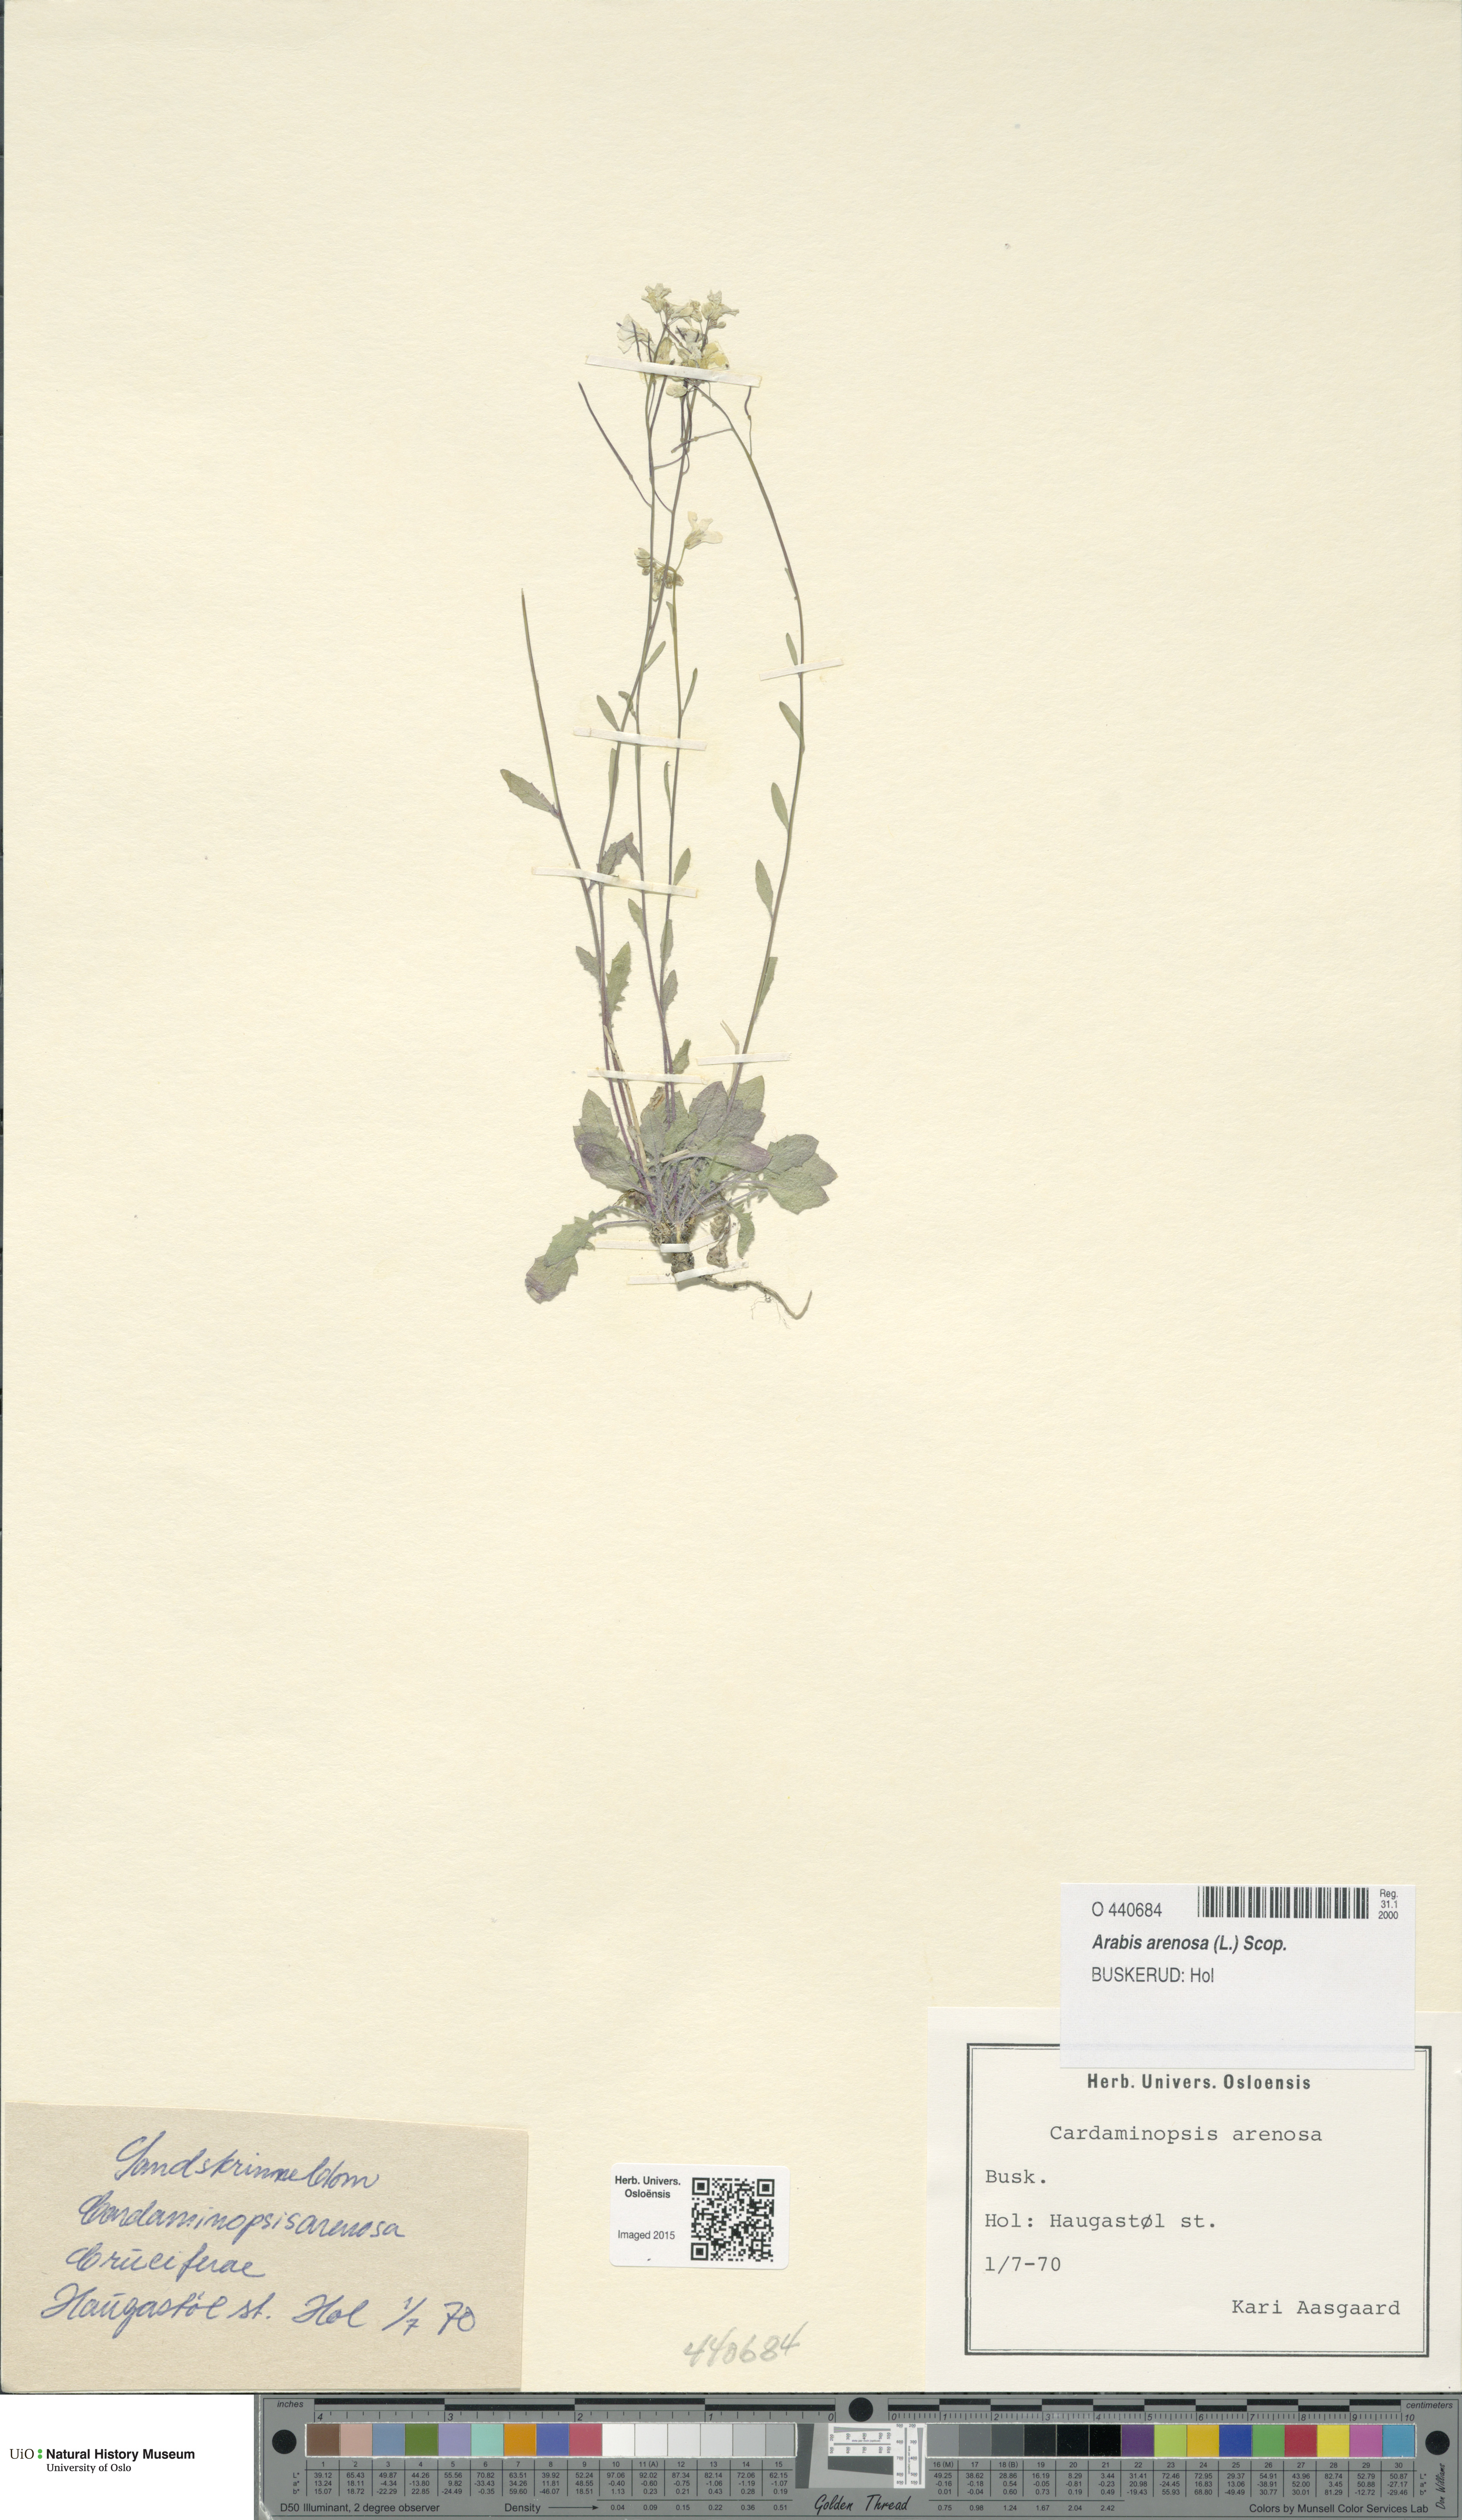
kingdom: Plantae
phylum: Tracheophyta
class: Magnoliopsida
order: Brassicales
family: Brassicaceae
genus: Arabidopsis
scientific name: Arabidopsis arenosa
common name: Sand rock-cress
